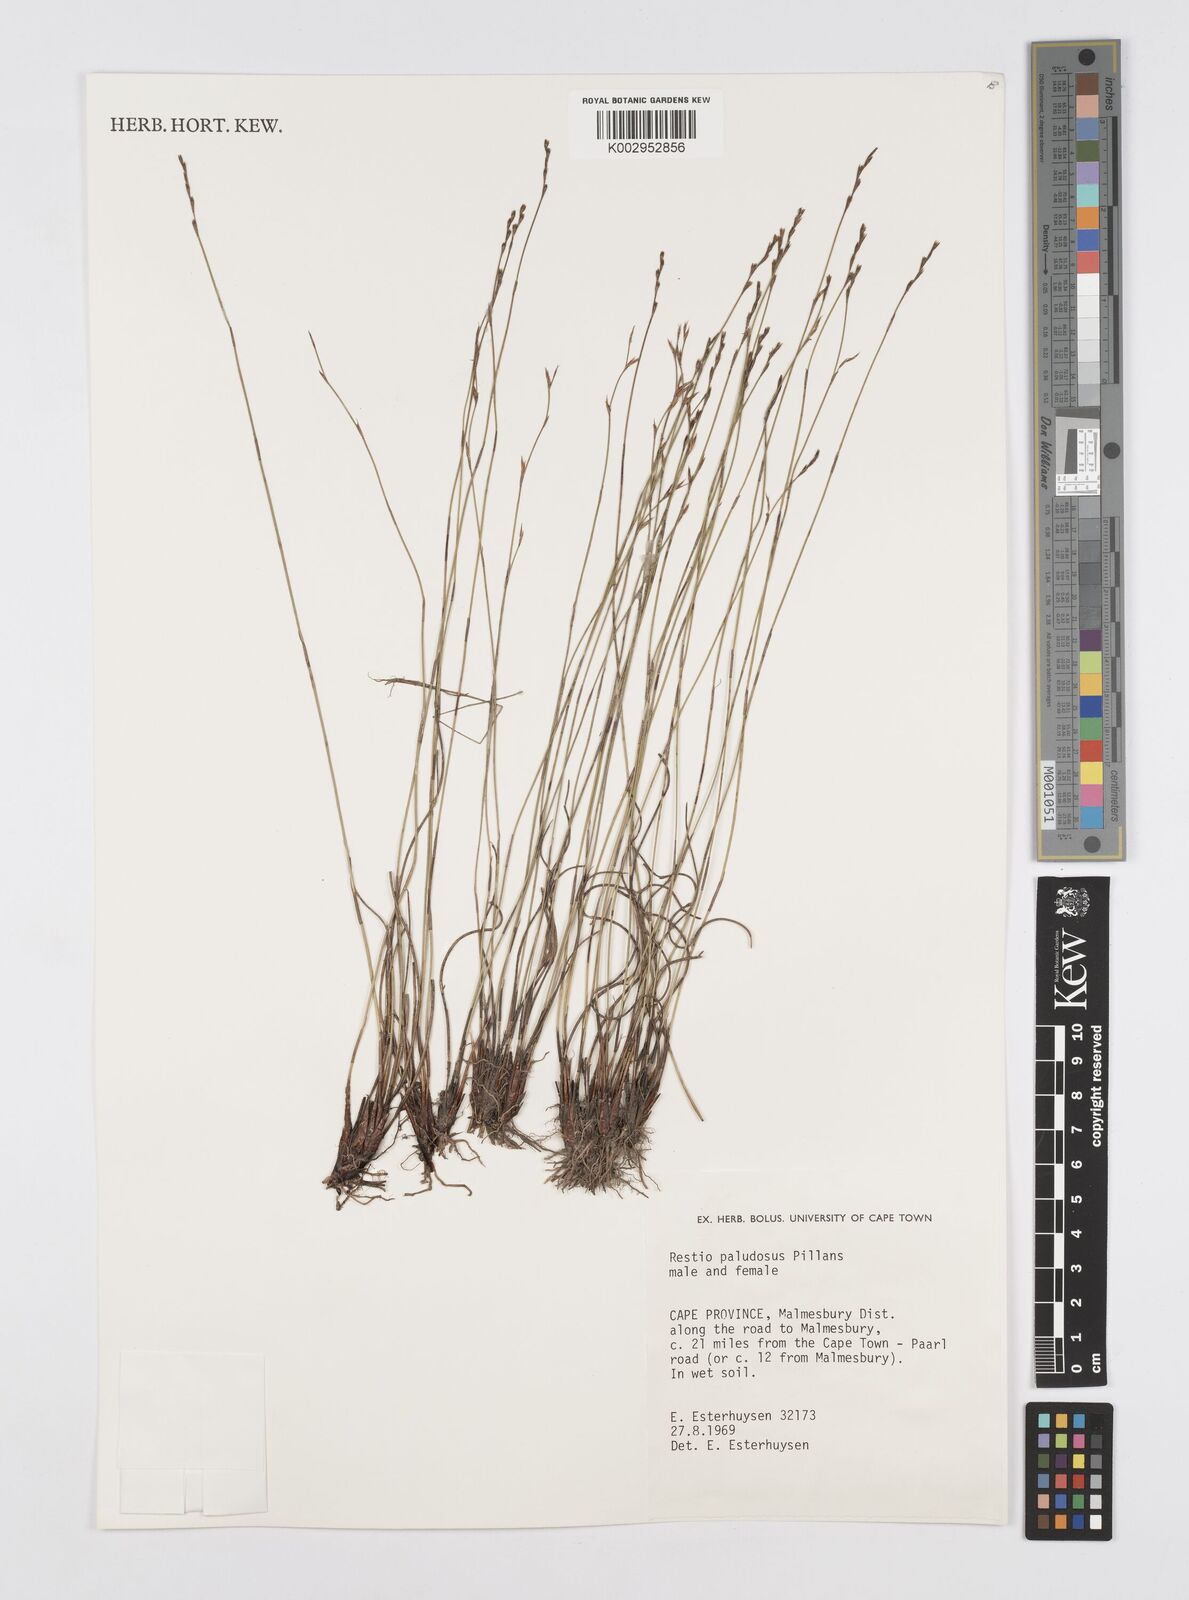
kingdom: Plantae
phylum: Tracheophyta
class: Liliopsida
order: Poales
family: Restionaceae
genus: Restio
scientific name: Restio paludosus
